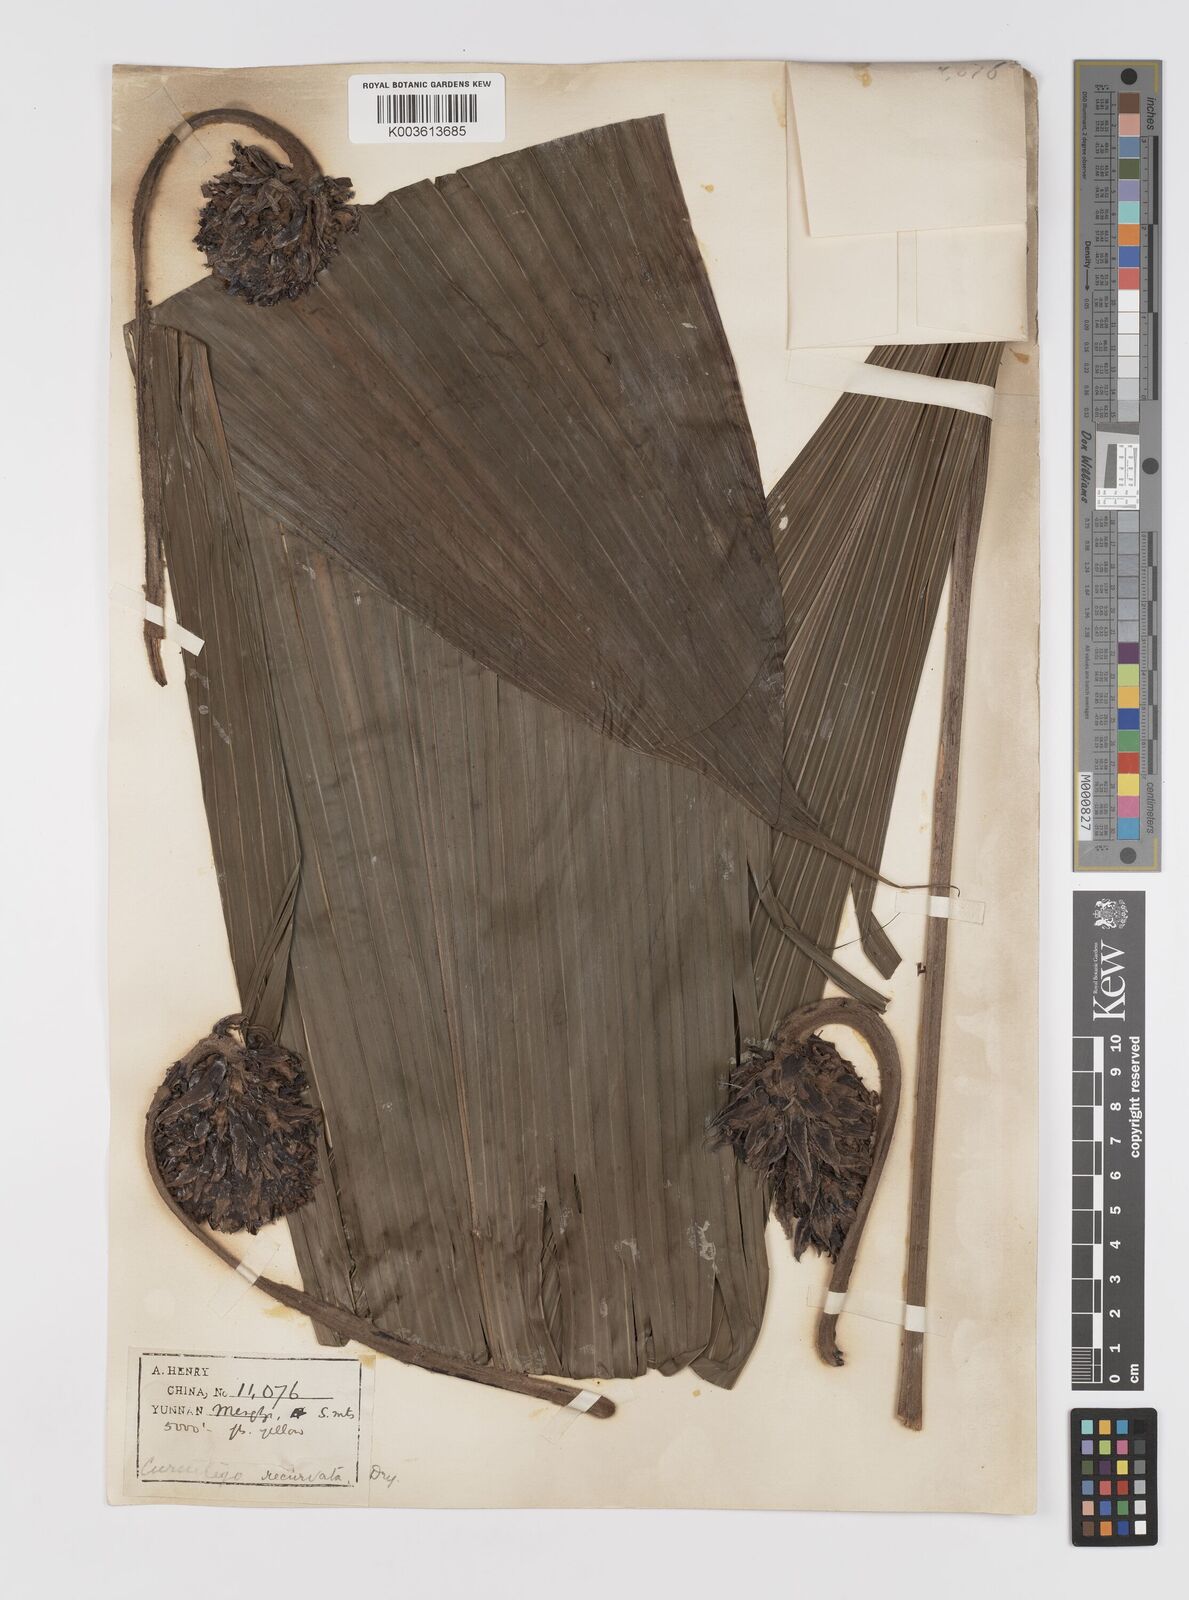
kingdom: Plantae
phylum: Tracheophyta
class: Liliopsida
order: Asparagales
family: Hypoxidaceae
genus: Curculigo
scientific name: Curculigo capitulata
